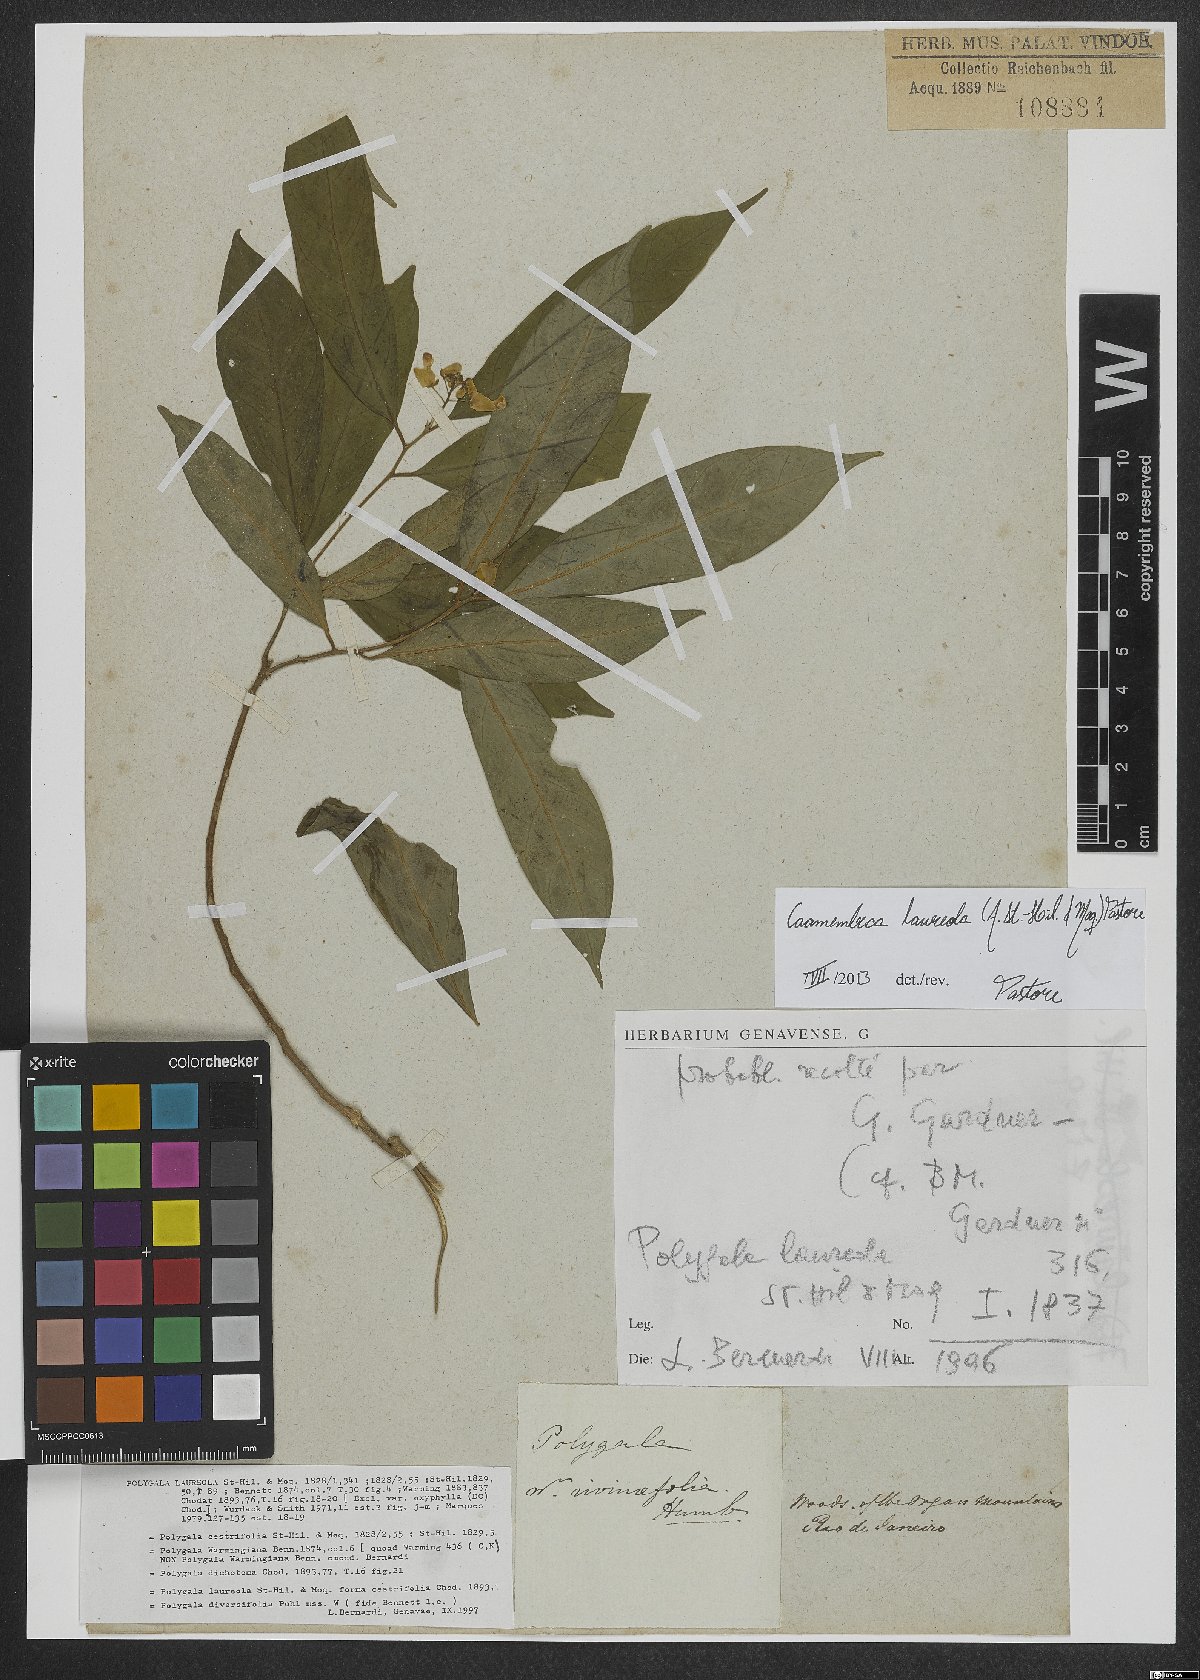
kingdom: Plantae
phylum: Tracheophyta
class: Magnoliopsida
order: Fabales
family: Polygalaceae
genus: Caamembeca
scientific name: Caamembeca salicifolia
